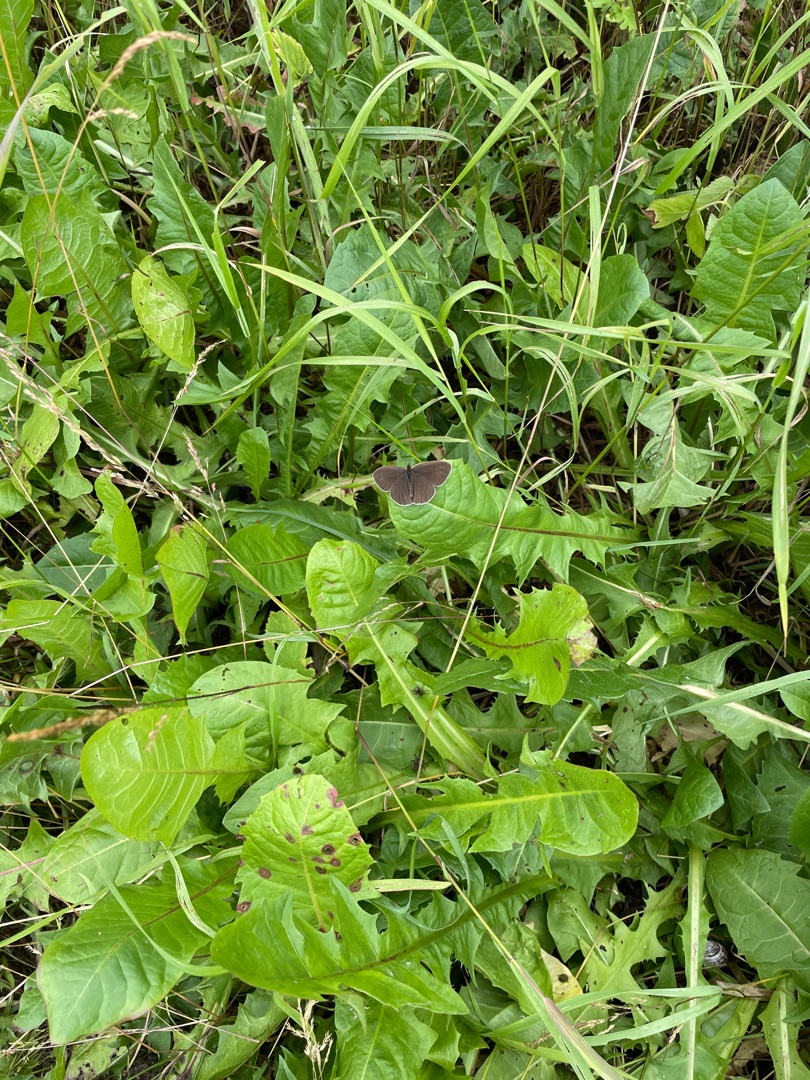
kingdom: Animalia
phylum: Arthropoda
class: Insecta
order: Lepidoptera
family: Nymphalidae
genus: Aphantopus
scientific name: Aphantopus hyperantus
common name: Engrandøje
